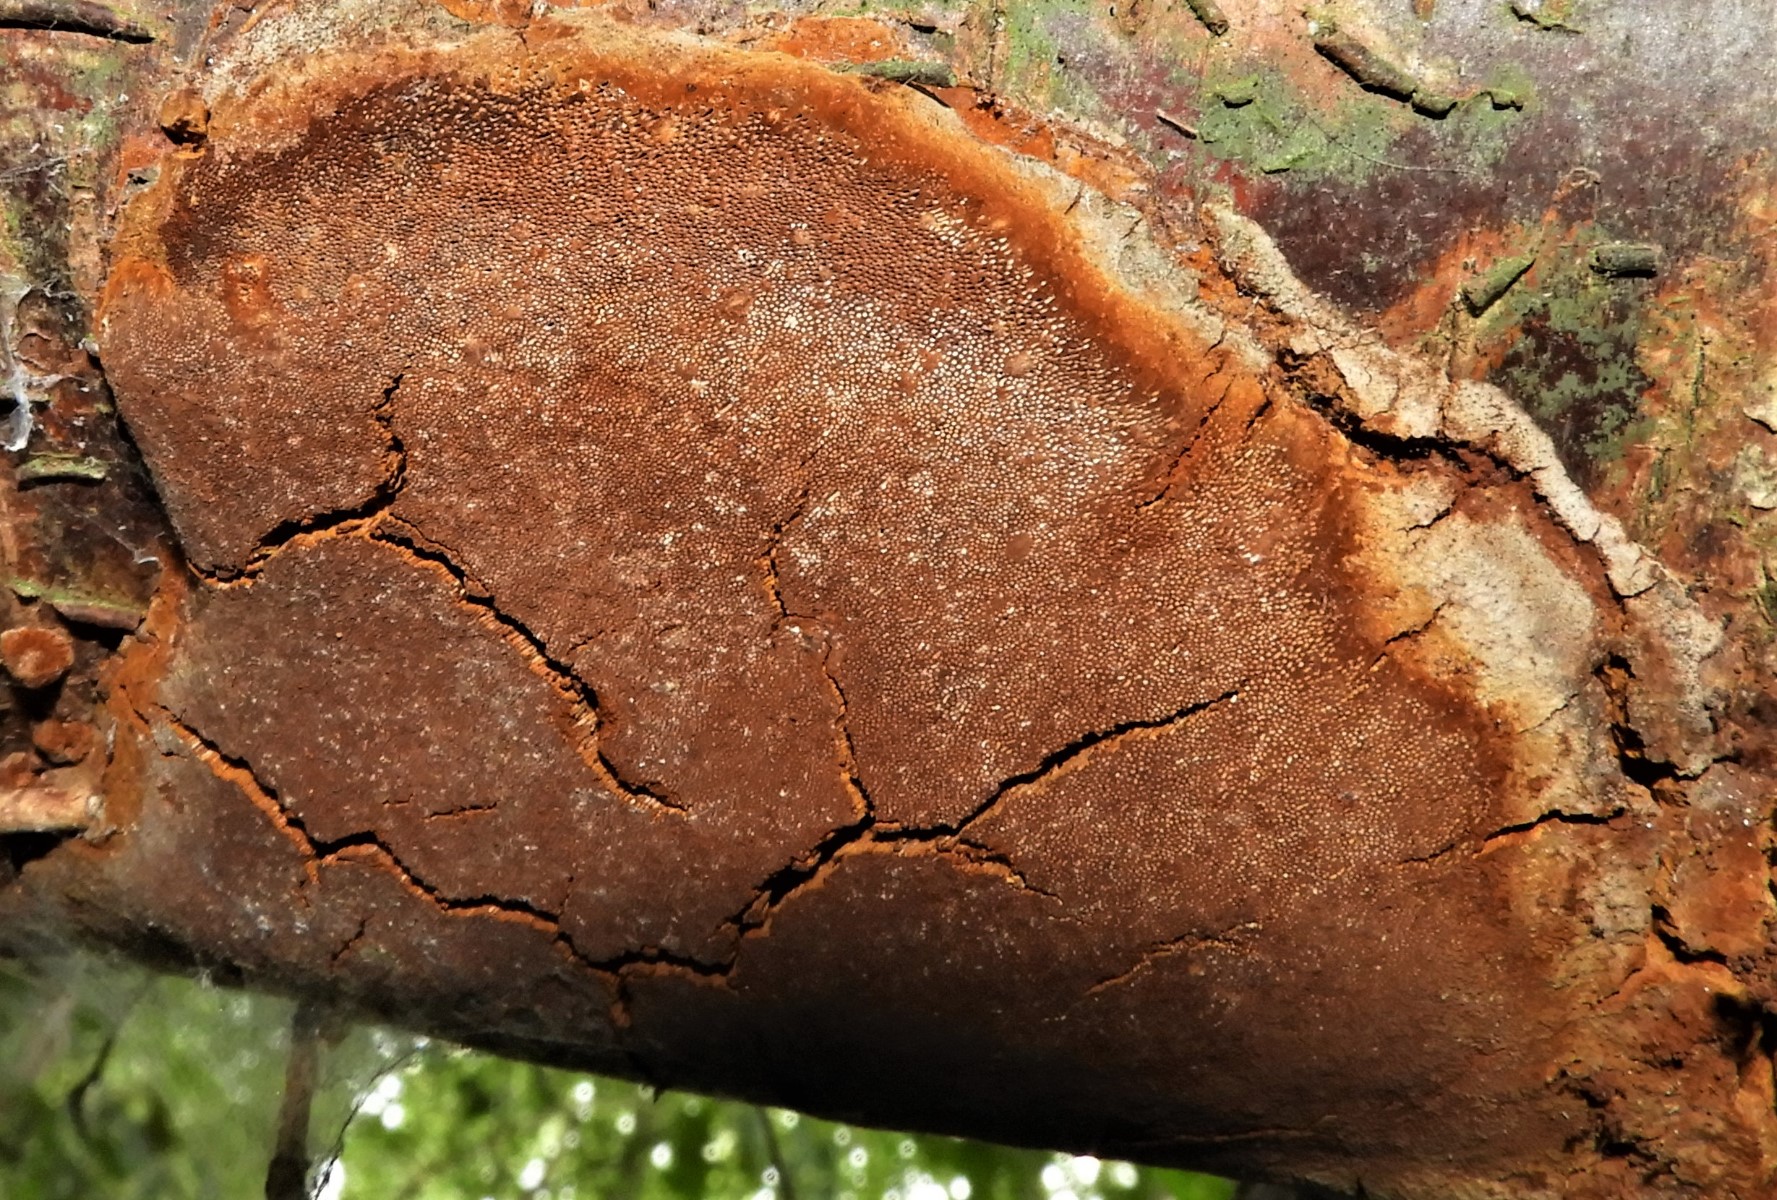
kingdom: Fungi
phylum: Basidiomycota
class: Agaricomycetes
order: Hymenochaetales
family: Hymenochaetaceae
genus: Phellinus
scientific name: Phellinus pomaceus
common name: blomme-ildporesvamp
